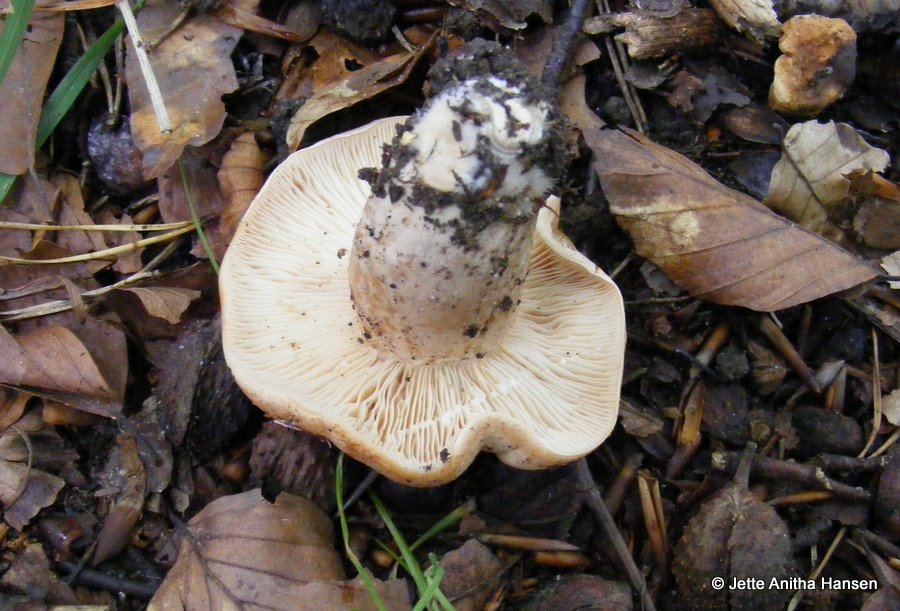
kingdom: Fungi
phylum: Basidiomycota
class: Agaricomycetes
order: Russulales
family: Russulaceae
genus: Lactarius
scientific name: Lactarius pallidus
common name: bleg mælkehat
